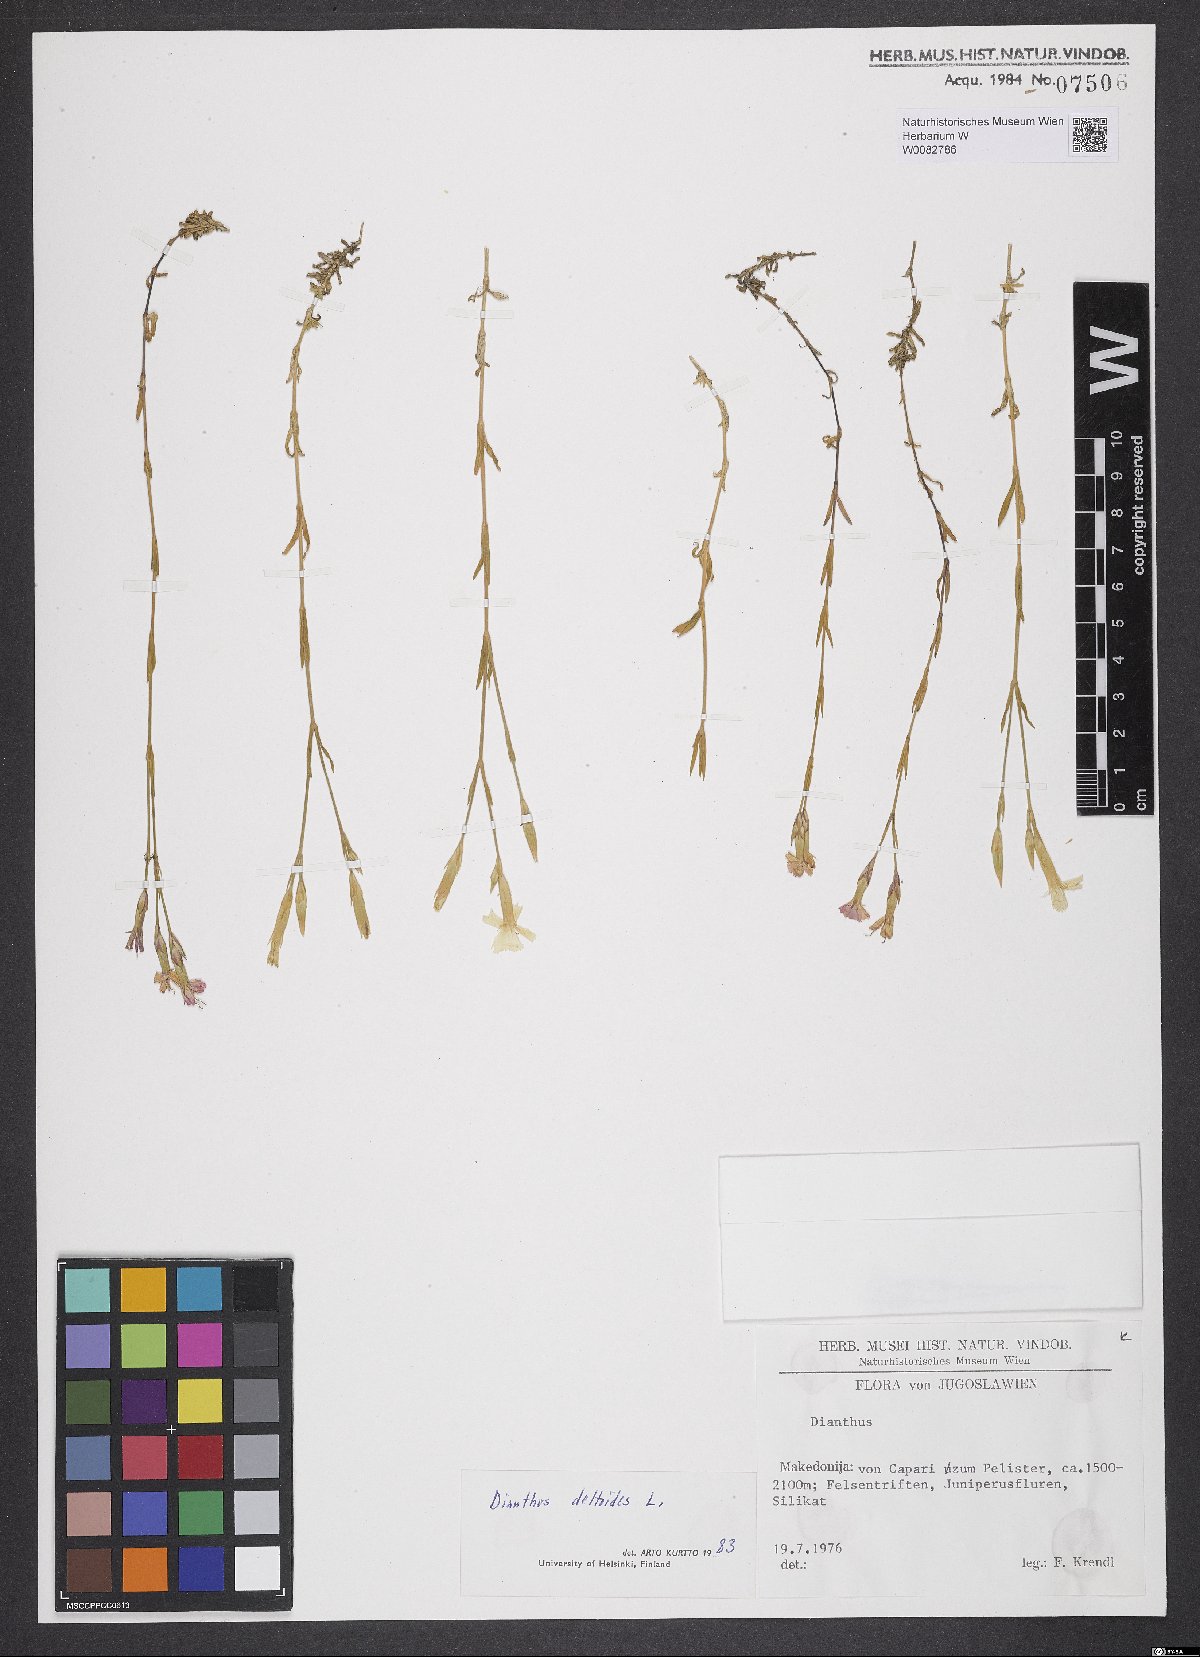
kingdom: Plantae
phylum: Tracheophyta
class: Magnoliopsida
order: Caryophyllales
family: Caryophyllaceae
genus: Dianthus
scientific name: Dianthus deltoides
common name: Maiden pink
